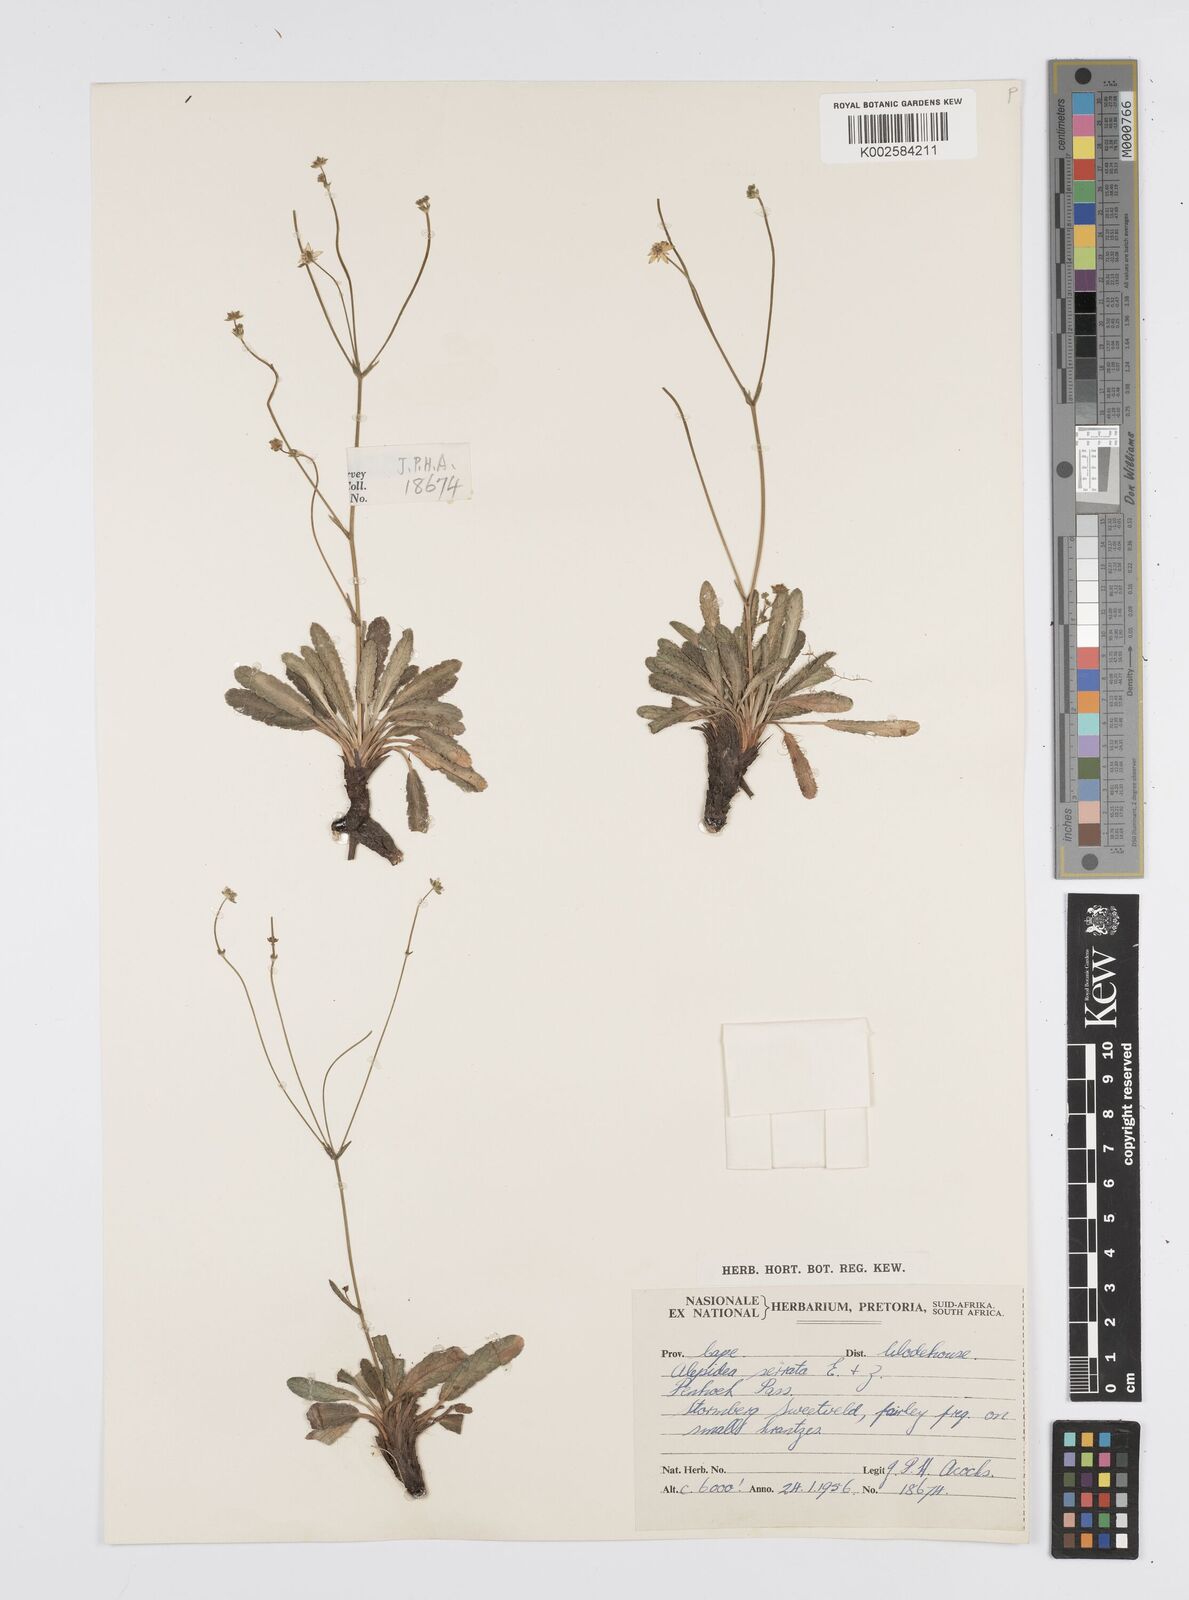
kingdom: Plantae
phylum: Tracheophyta
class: Magnoliopsida
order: Apiales
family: Apiaceae
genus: Alepidea
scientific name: Alepidea serrata
